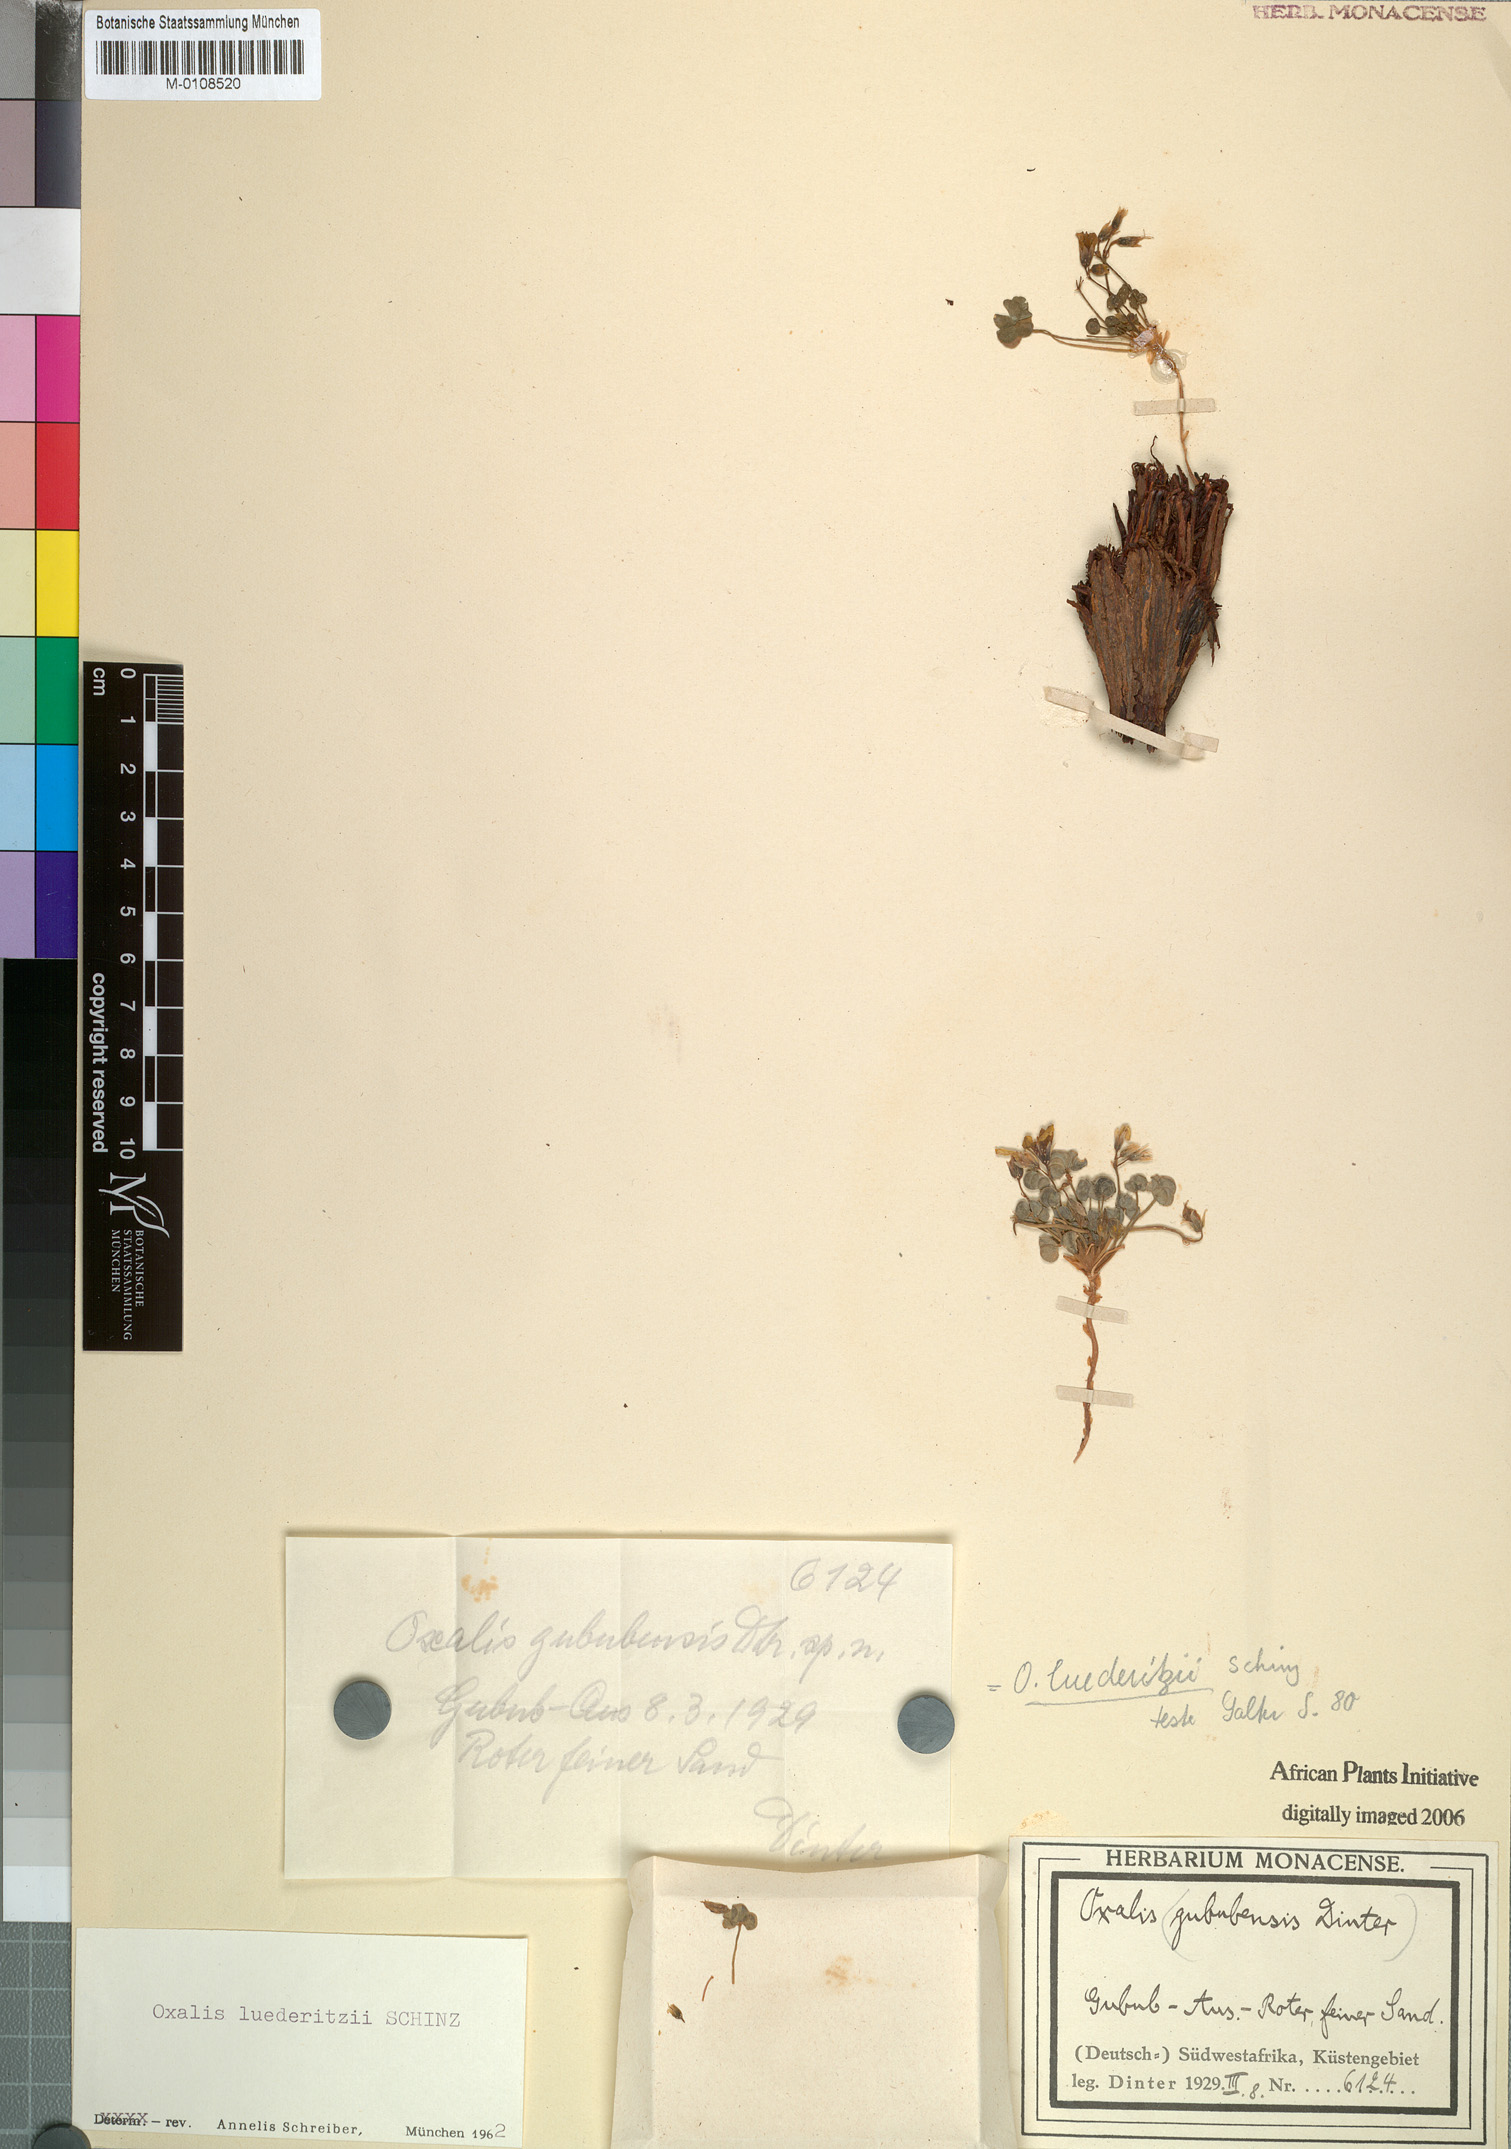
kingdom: Plantae
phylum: Tracheophyta
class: Magnoliopsida
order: Oxalidales
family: Oxalidaceae
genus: Oxalis
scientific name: Oxalis luederitzii
